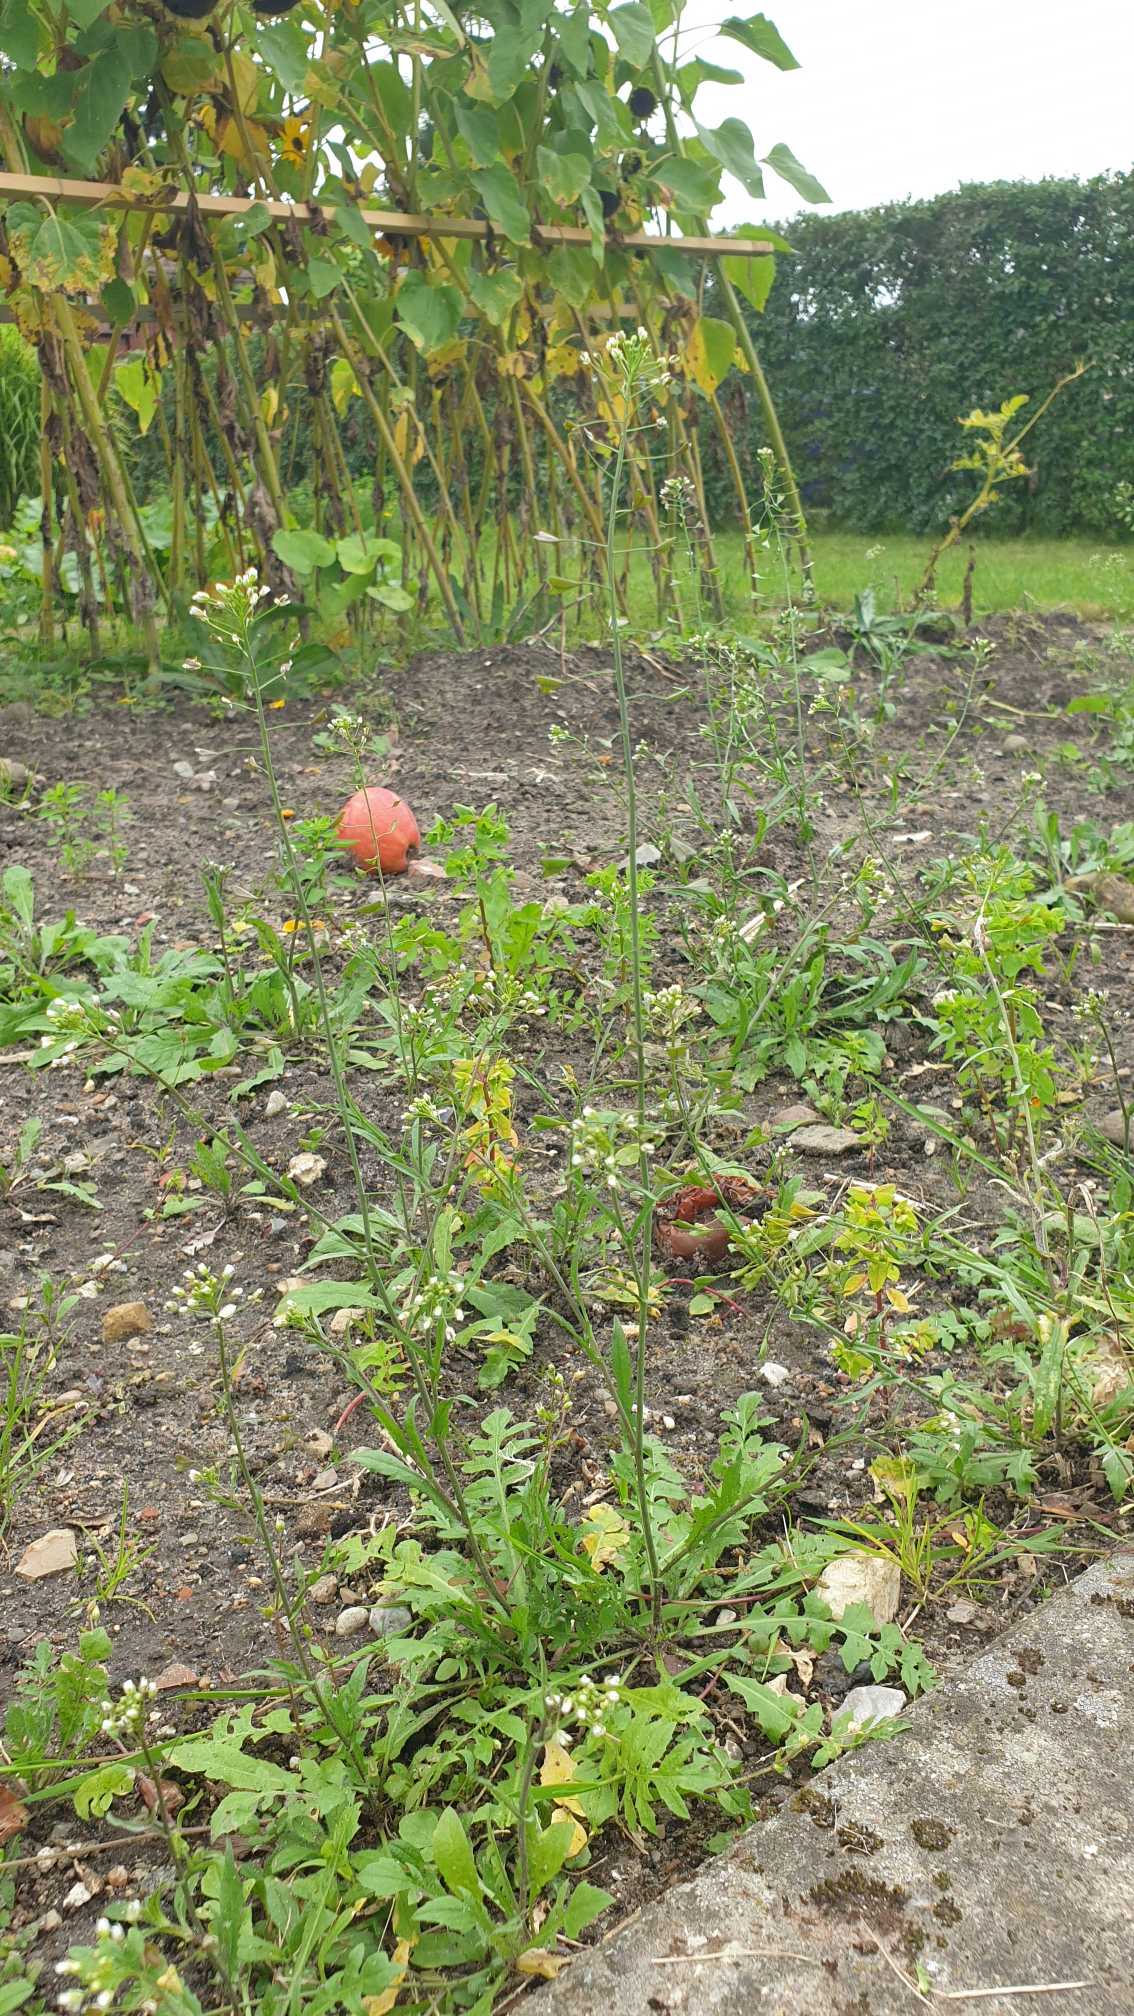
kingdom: Plantae
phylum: Tracheophyta
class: Magnoliopsida
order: Brassicales
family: Brassicaceae
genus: Capsella
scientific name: Capsella bursa-pastoris
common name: Hyrdetaske
